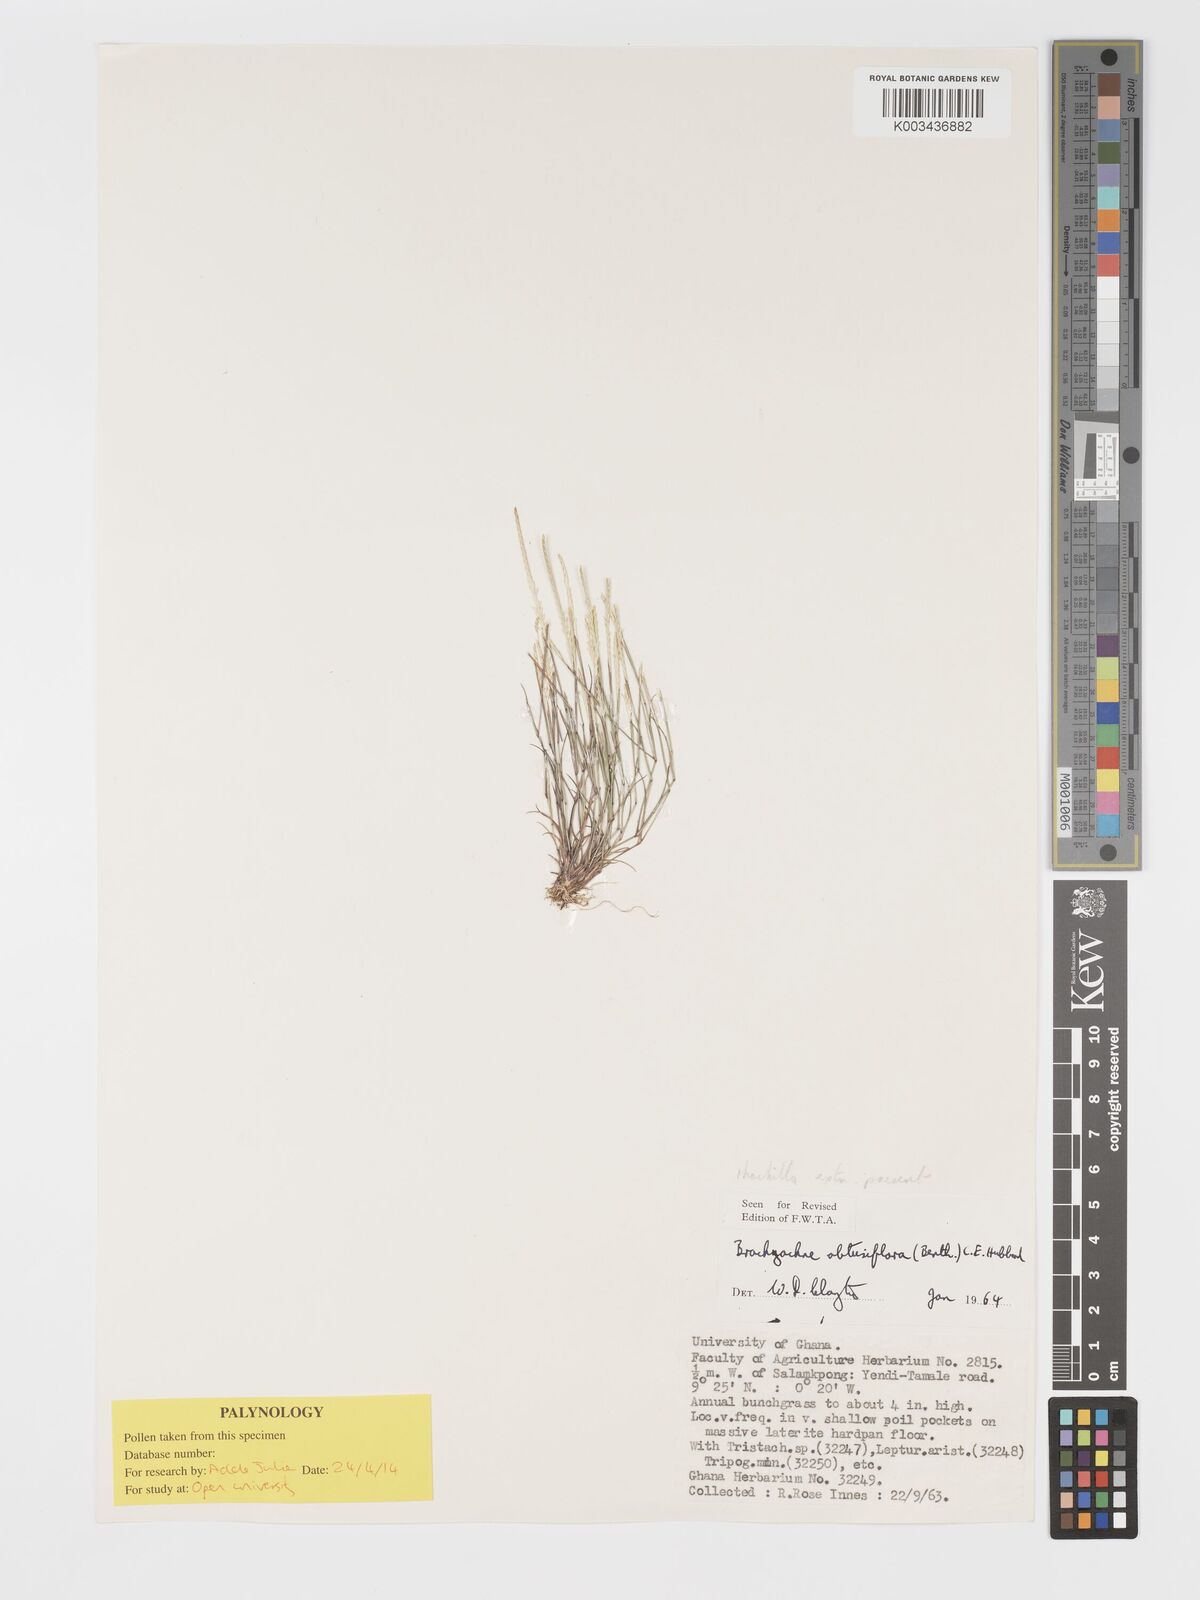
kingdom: Plantae
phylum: Tracheophyta
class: Liliopsida
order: Poales
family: Poaceae
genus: Micrachne
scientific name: Micrachne obtusiflora
